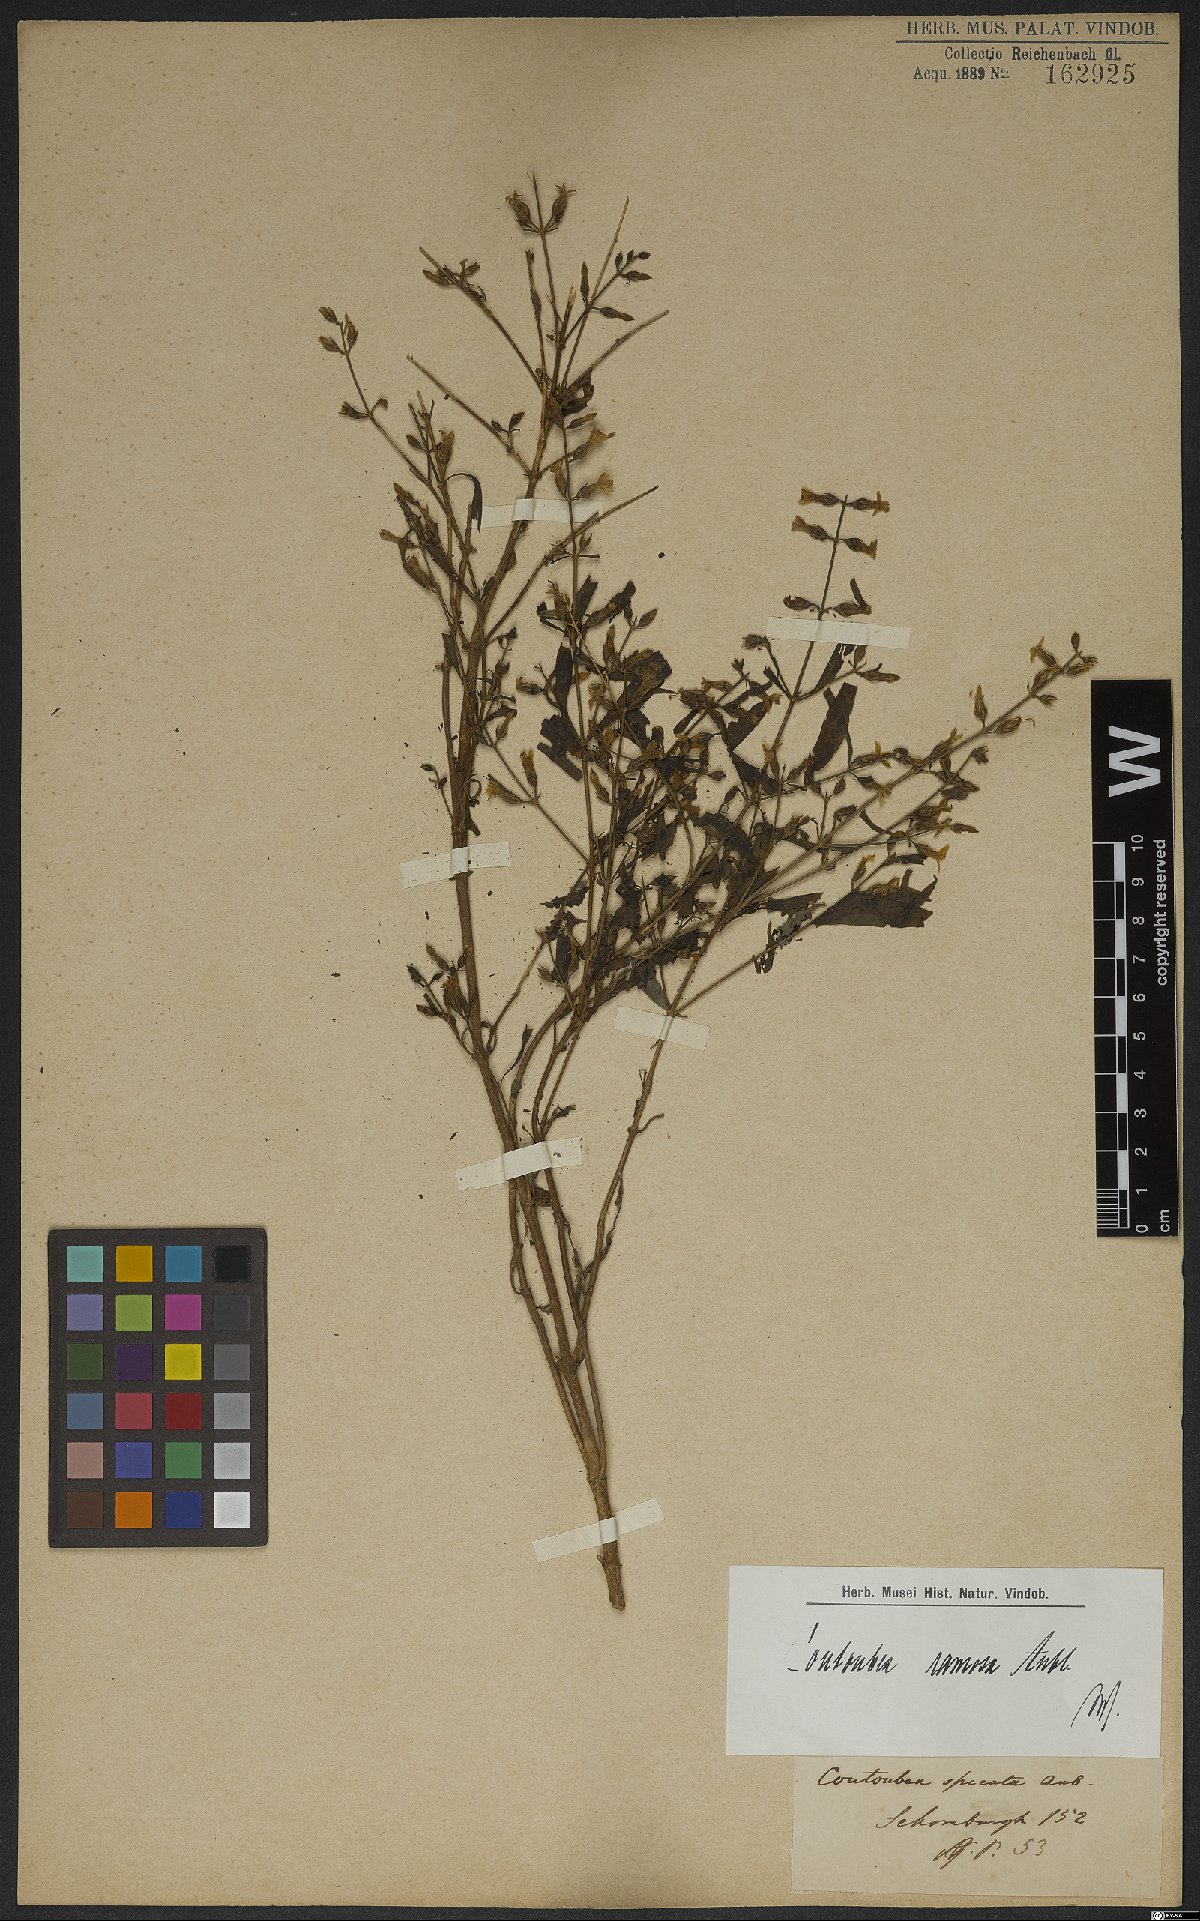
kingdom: Plantae
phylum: Tracheophyta
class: Magnoliopsida
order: Gentianales
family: Gentianaceae
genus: Coutoubea
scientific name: Coutoubea ramosa
